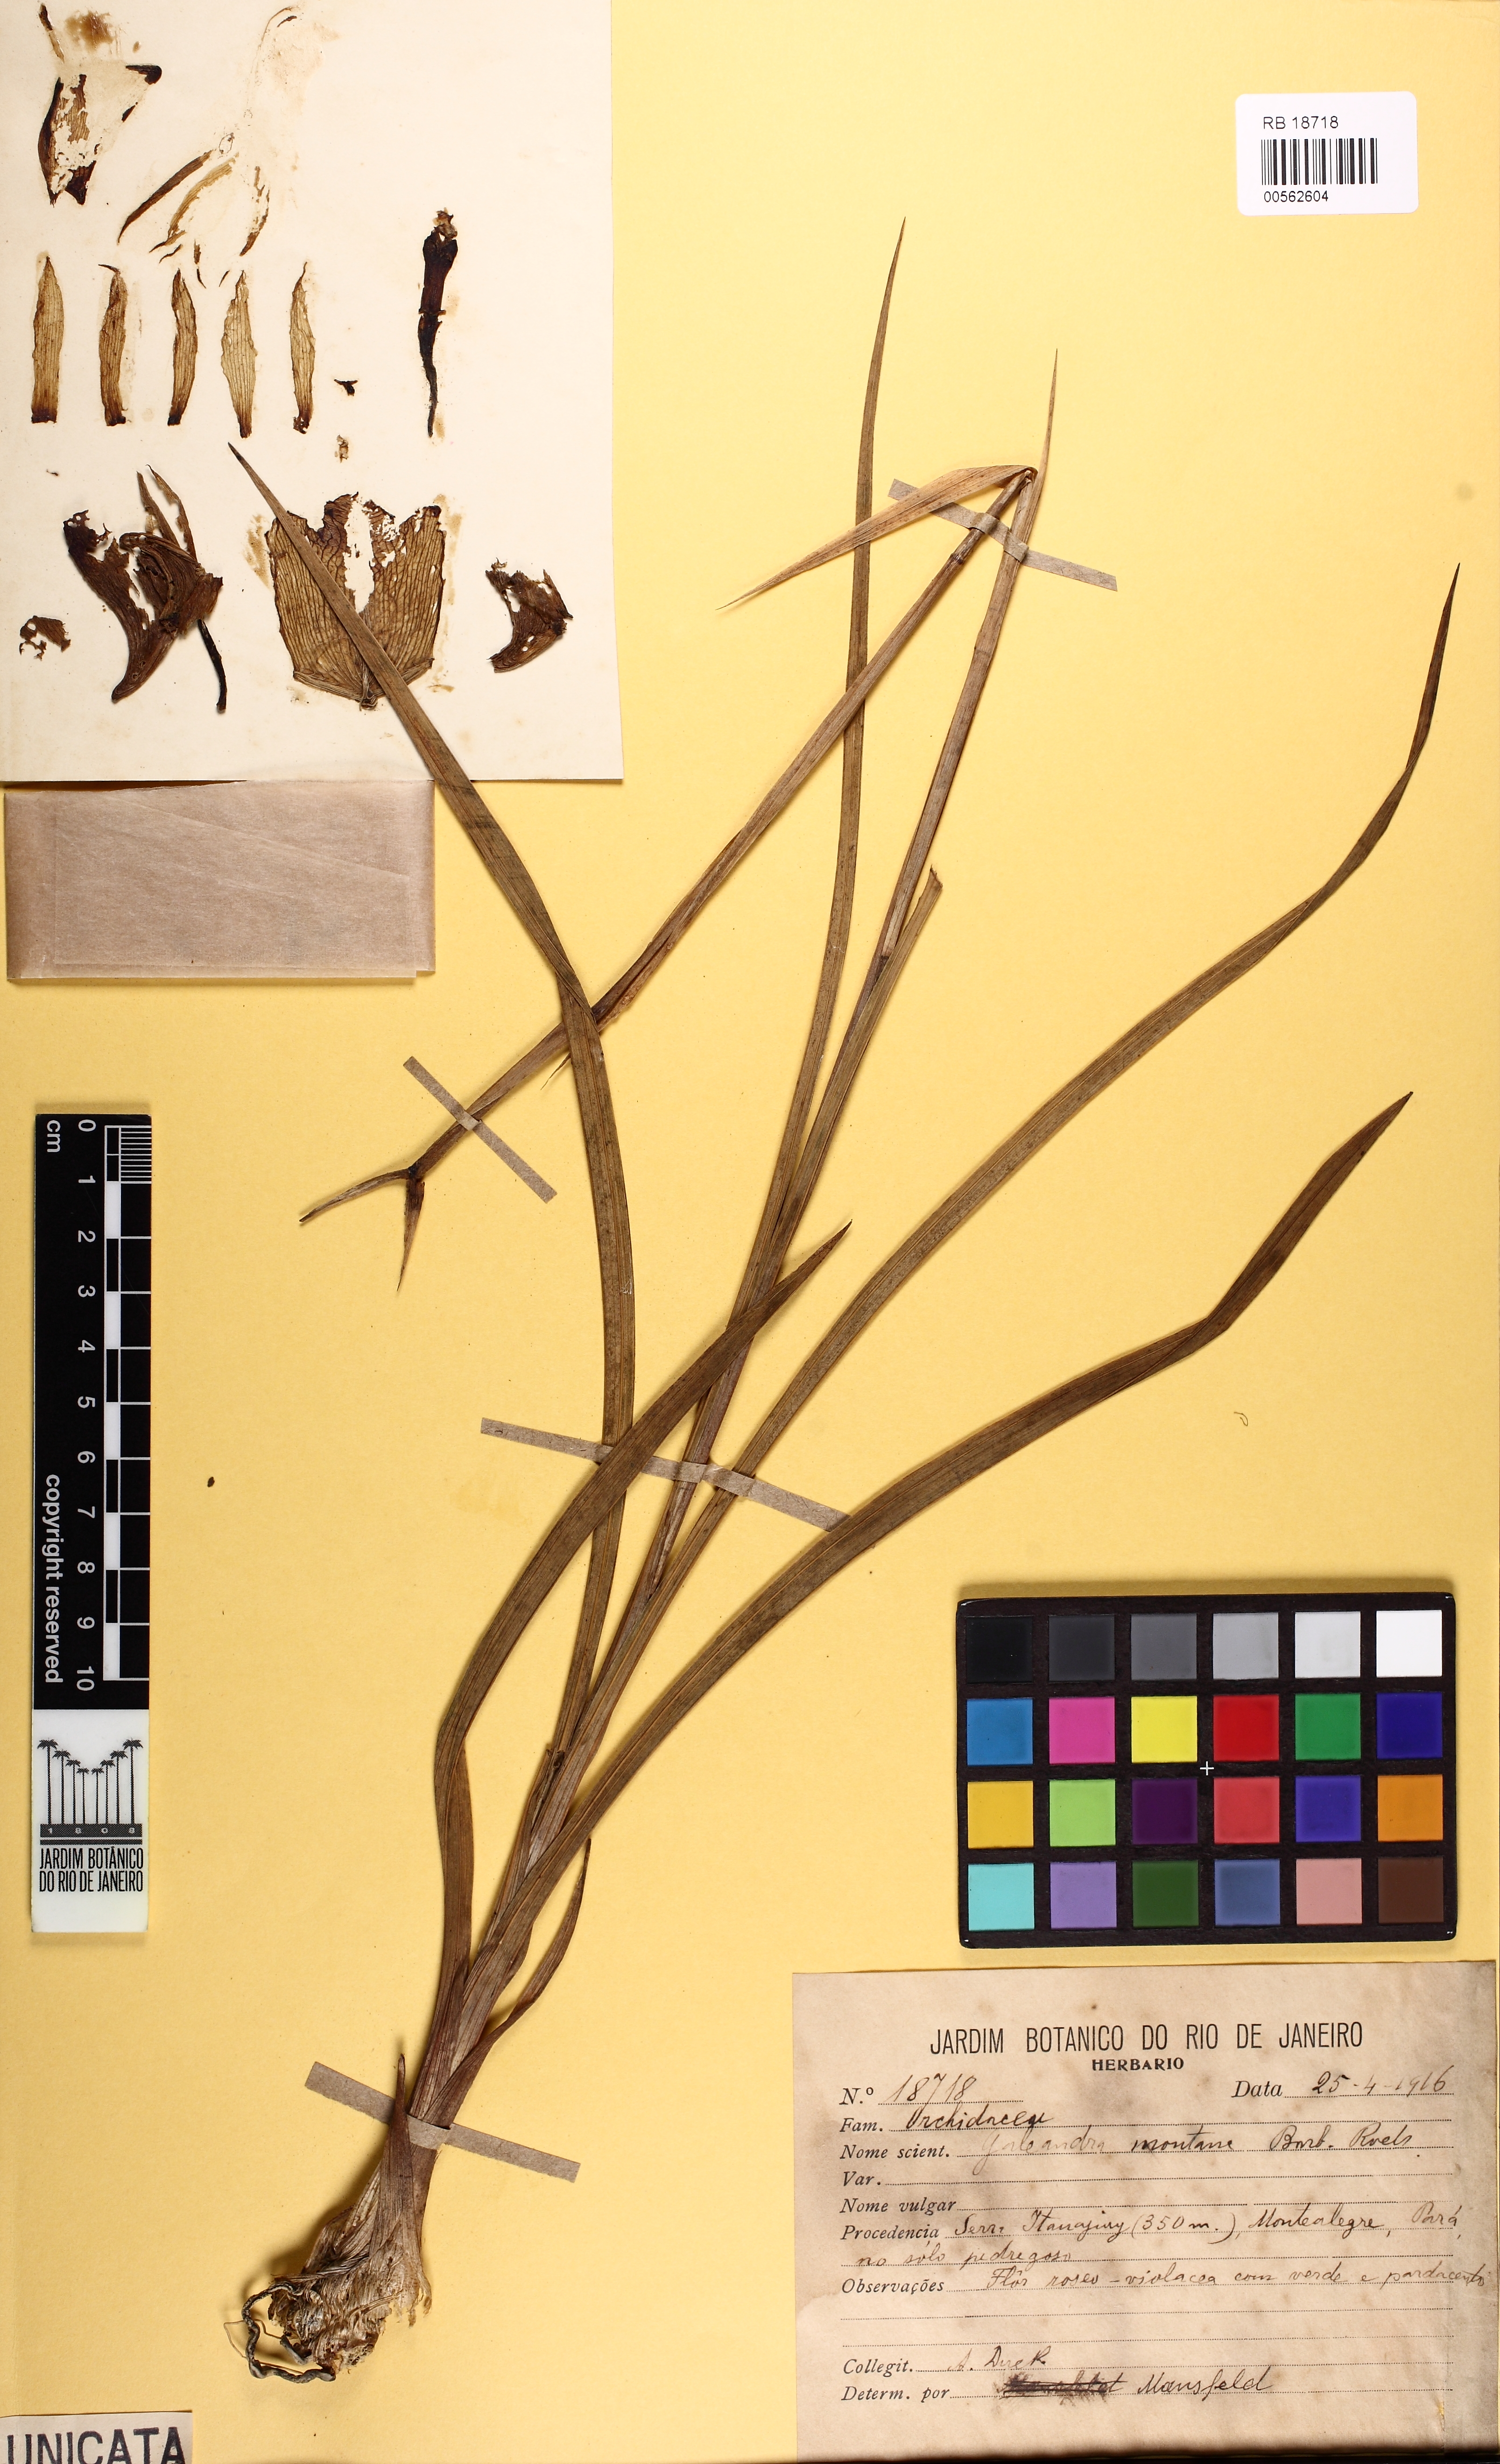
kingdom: Plantae
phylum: Tracheophyta
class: Liliopsida
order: Asparagales
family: Orchidaceae
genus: Galeandra
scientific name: Galeandra montana
